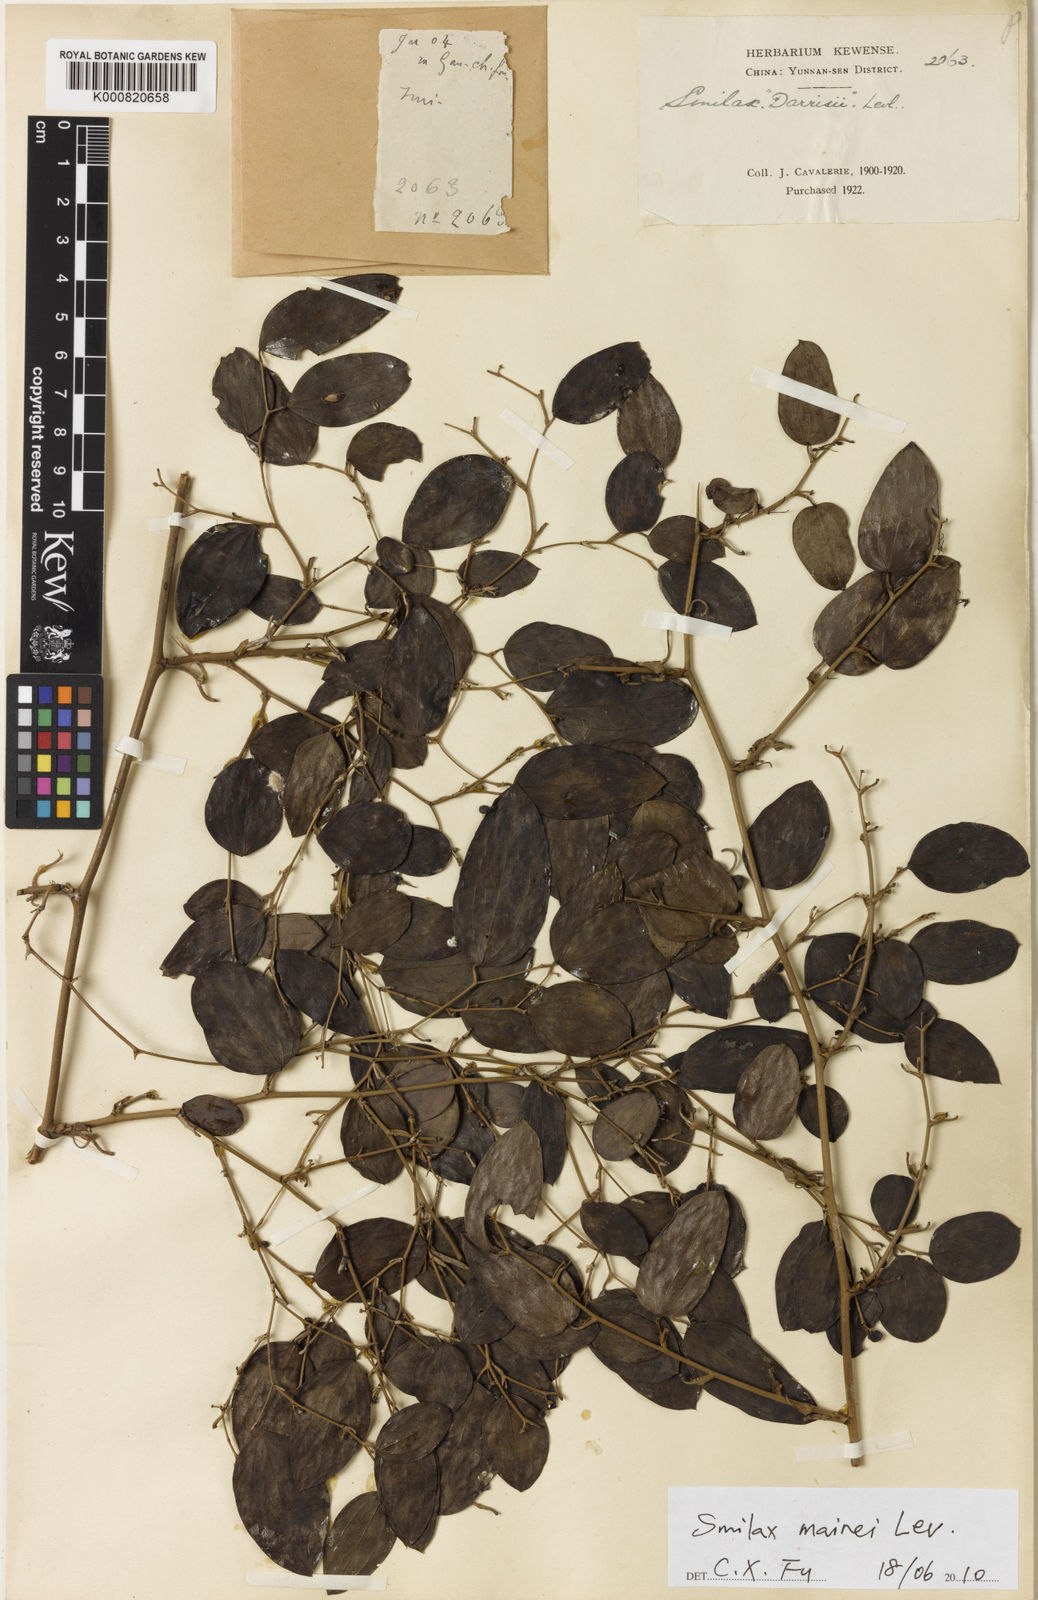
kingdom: Plantae
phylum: Tracheophyta
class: Liliopsida
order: Liliales
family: Smilacaceae
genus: Smilax
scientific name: Smilax
